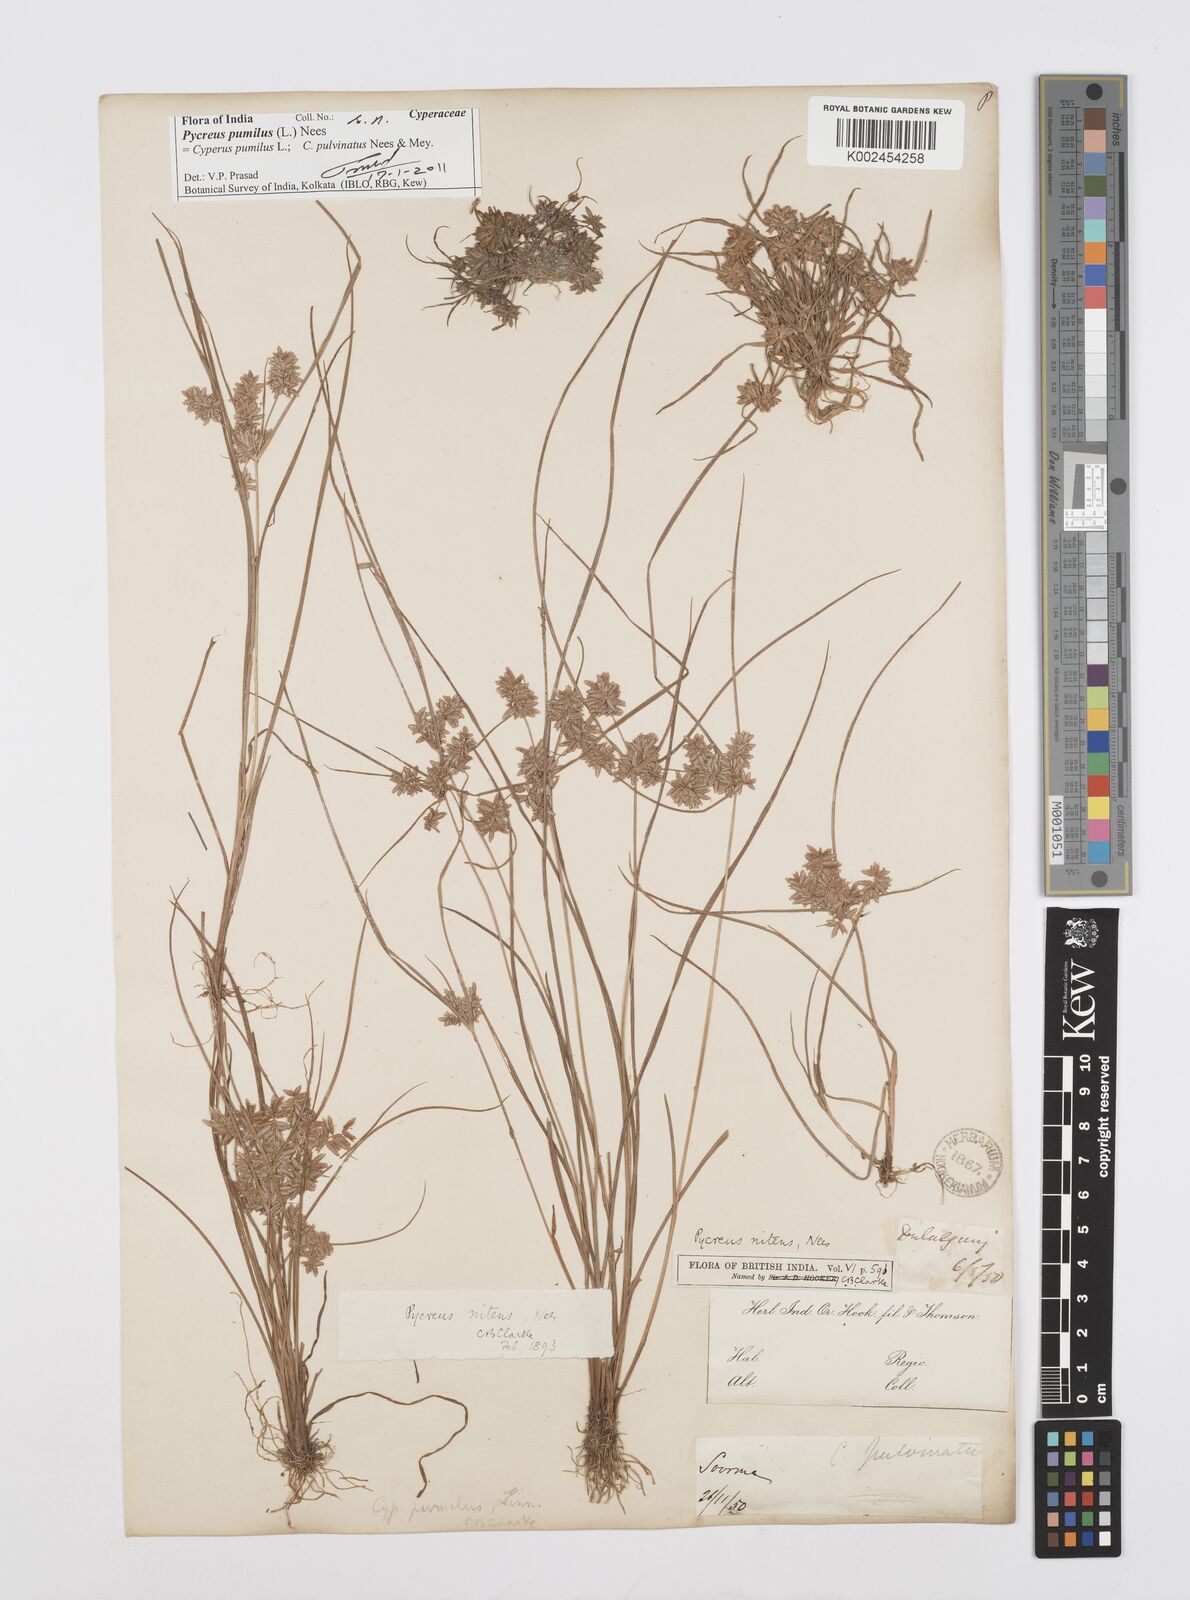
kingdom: Plantae
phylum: Tracheophyta
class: Liliopsida
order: Poales
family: Cyperaceae
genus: Cyperus
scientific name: Cyperus pumilus
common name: Low flatsedge
